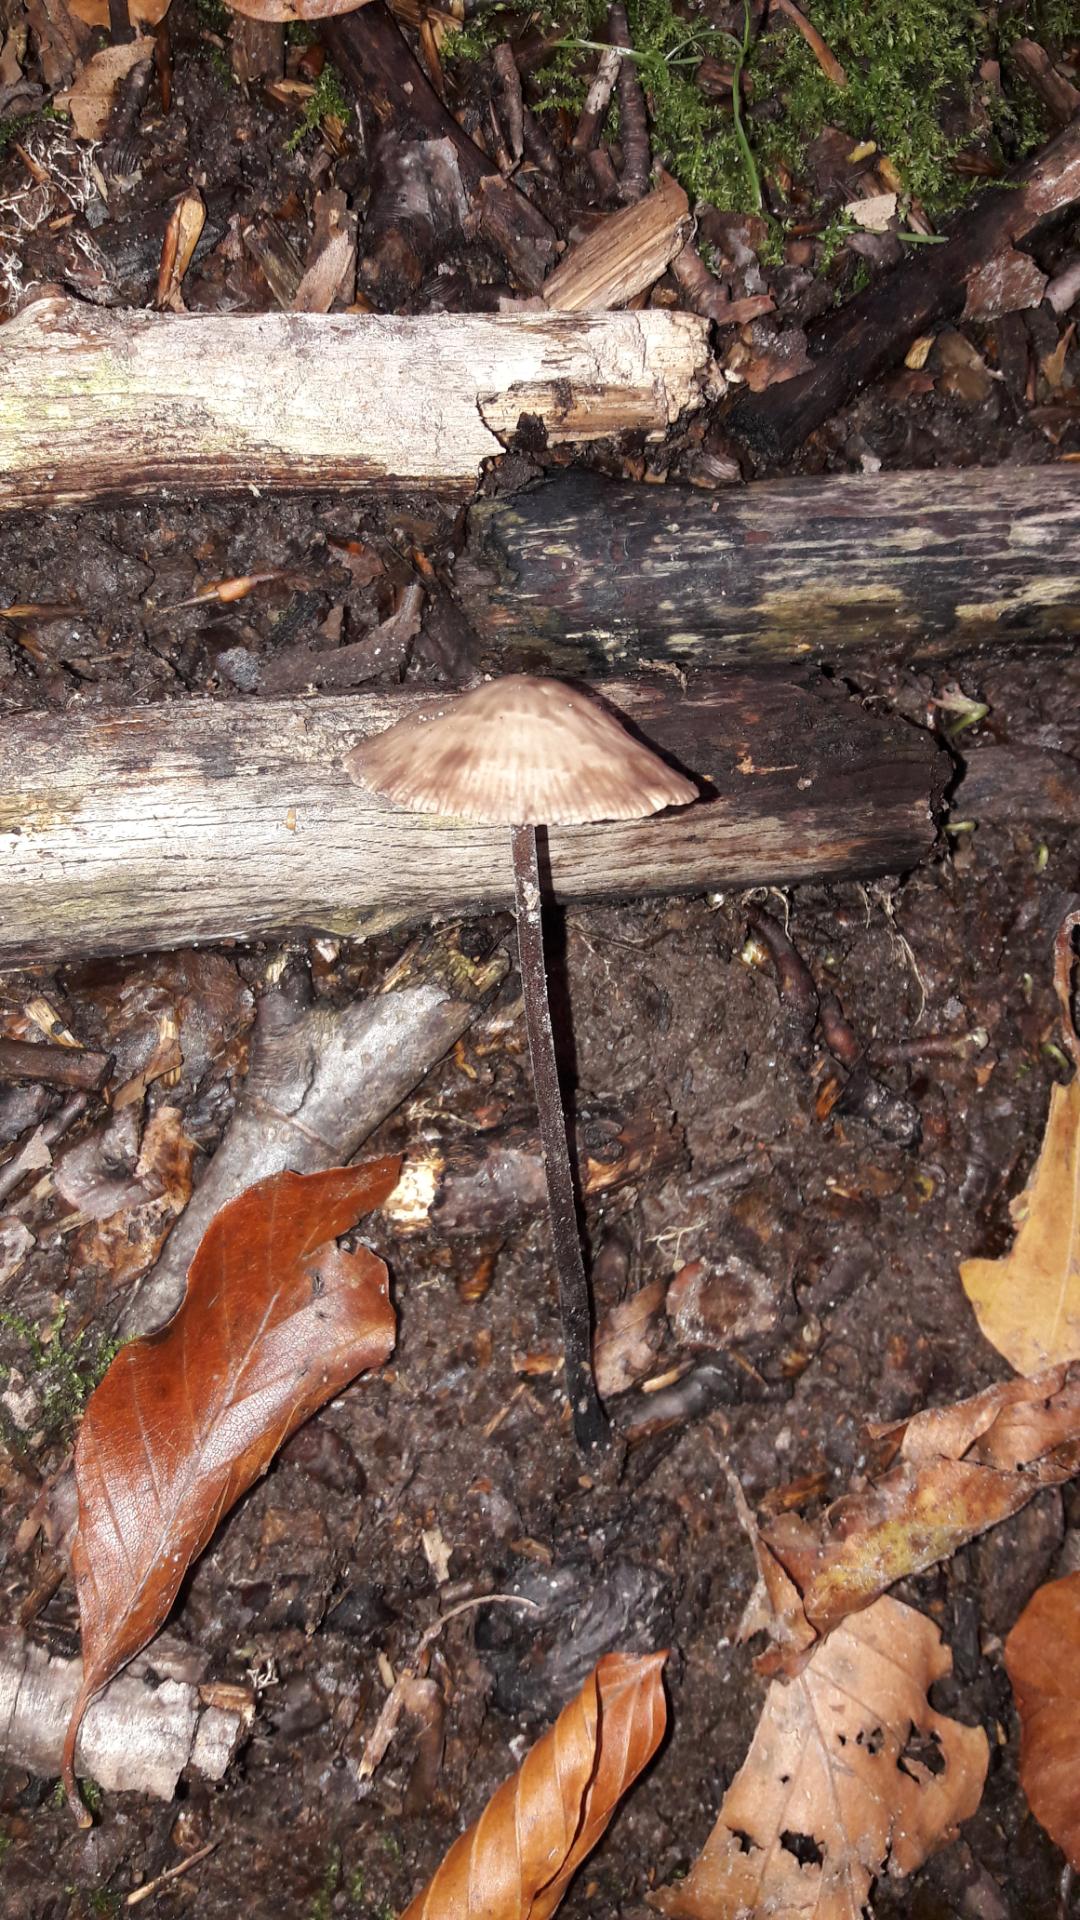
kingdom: Fungi
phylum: Basidiomycota
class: Agaricomycetes
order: Agaricales
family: Omphalotaceae
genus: Mycetinis
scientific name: Mycetinis alliaceus
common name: stor løghat
